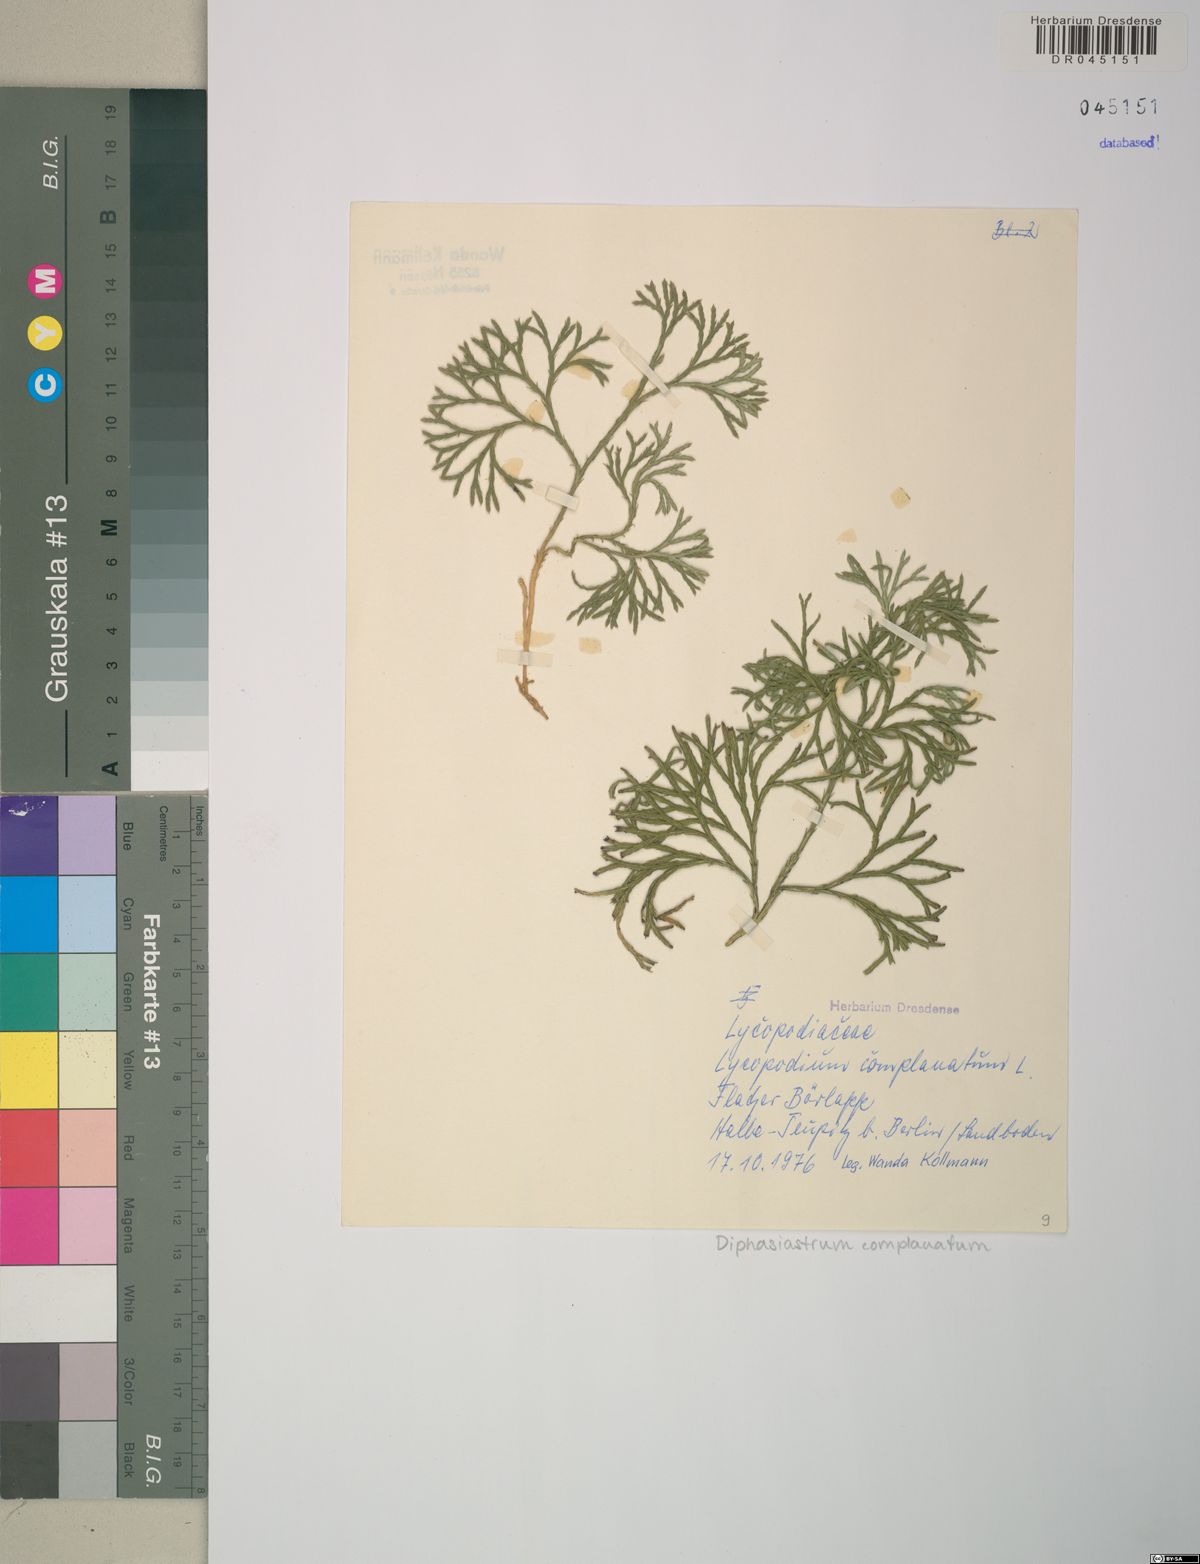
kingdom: Plantae
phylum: Tracheophyta
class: Lycopodiopsida
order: Lycopodiales
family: Lycopodiaceae
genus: Diphasiastrum
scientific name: Diphasiastrum complanatum
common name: Northern running-pine
